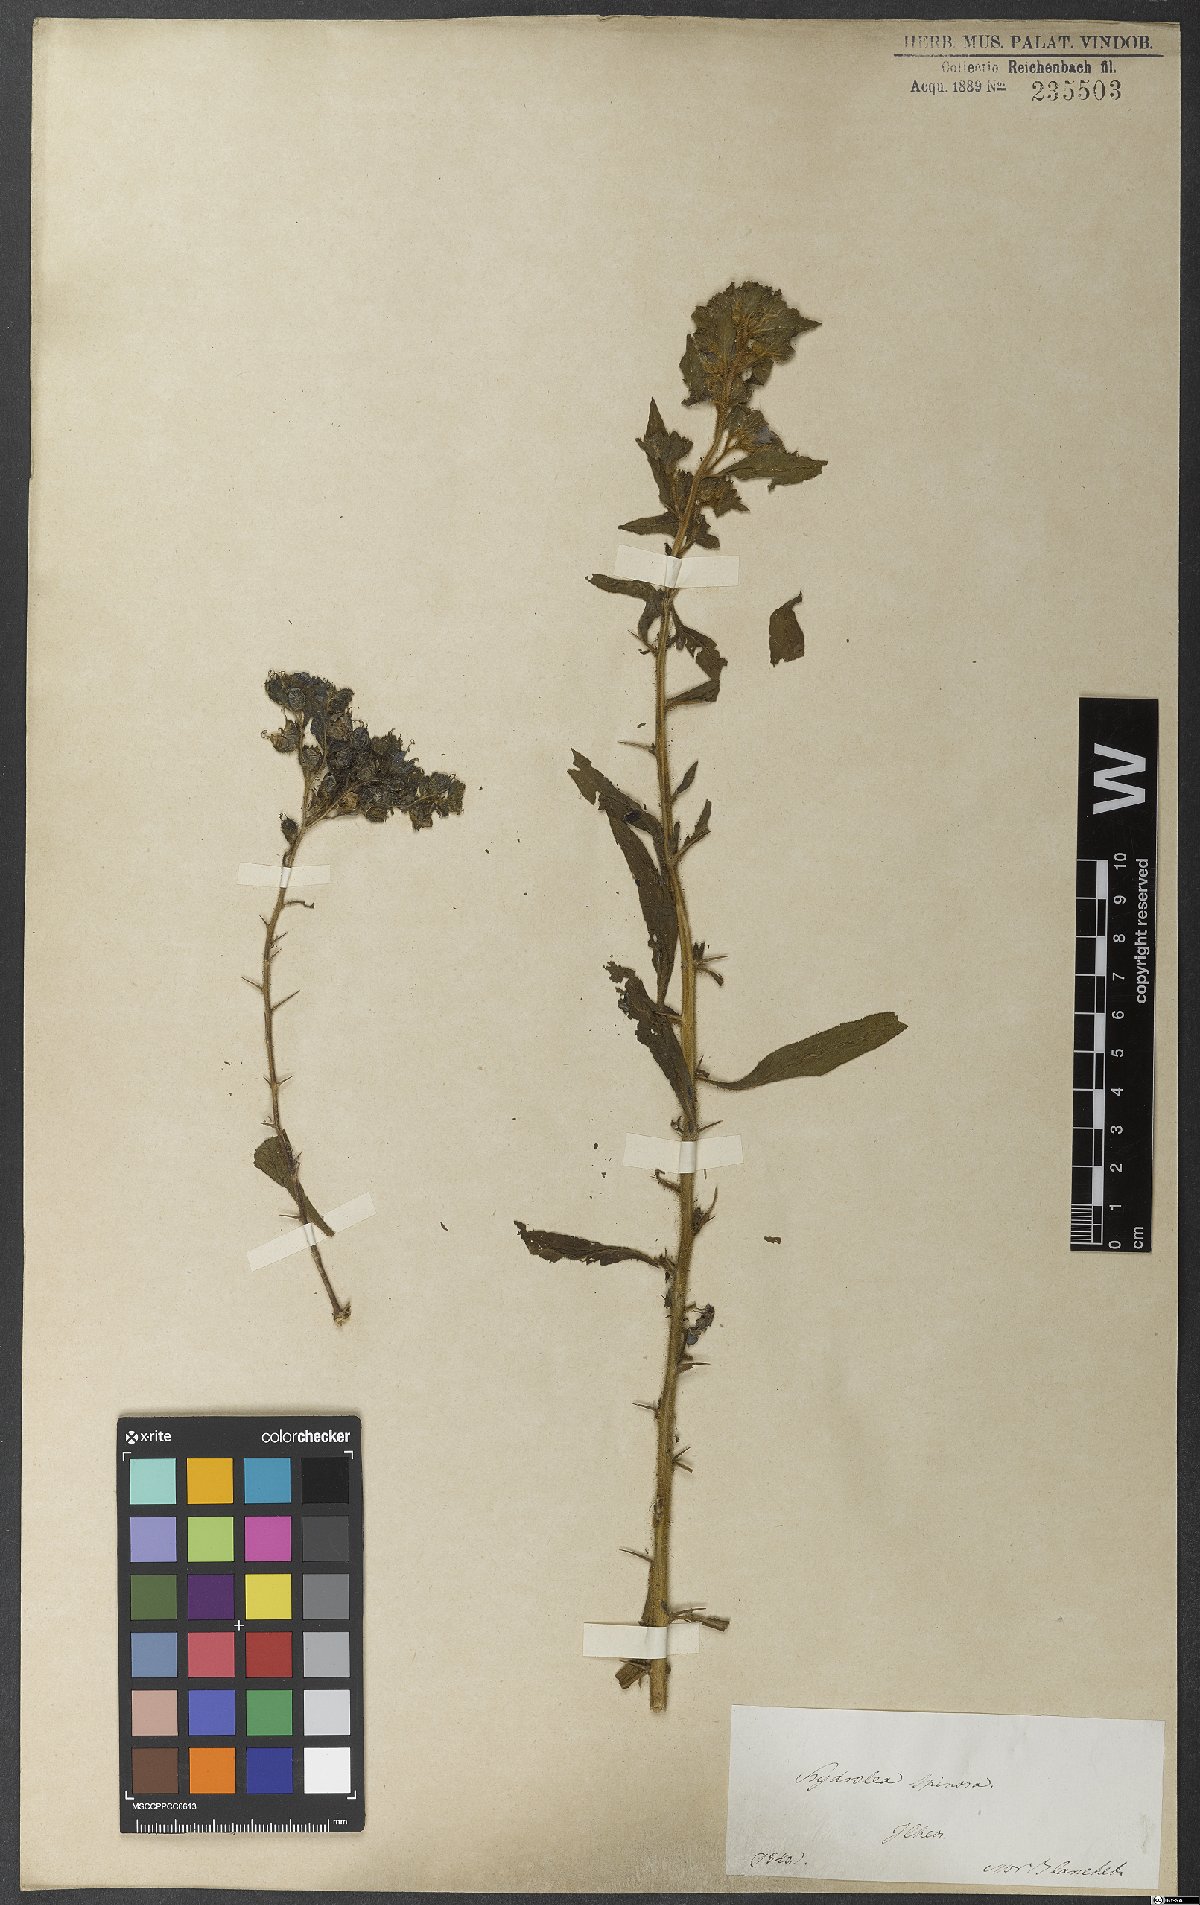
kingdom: Plantae
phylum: Tracheophyta
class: Magnoliopsida
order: Solanales
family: Hydroleaceae
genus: Hydrolea
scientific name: Hydrolea spinosa
